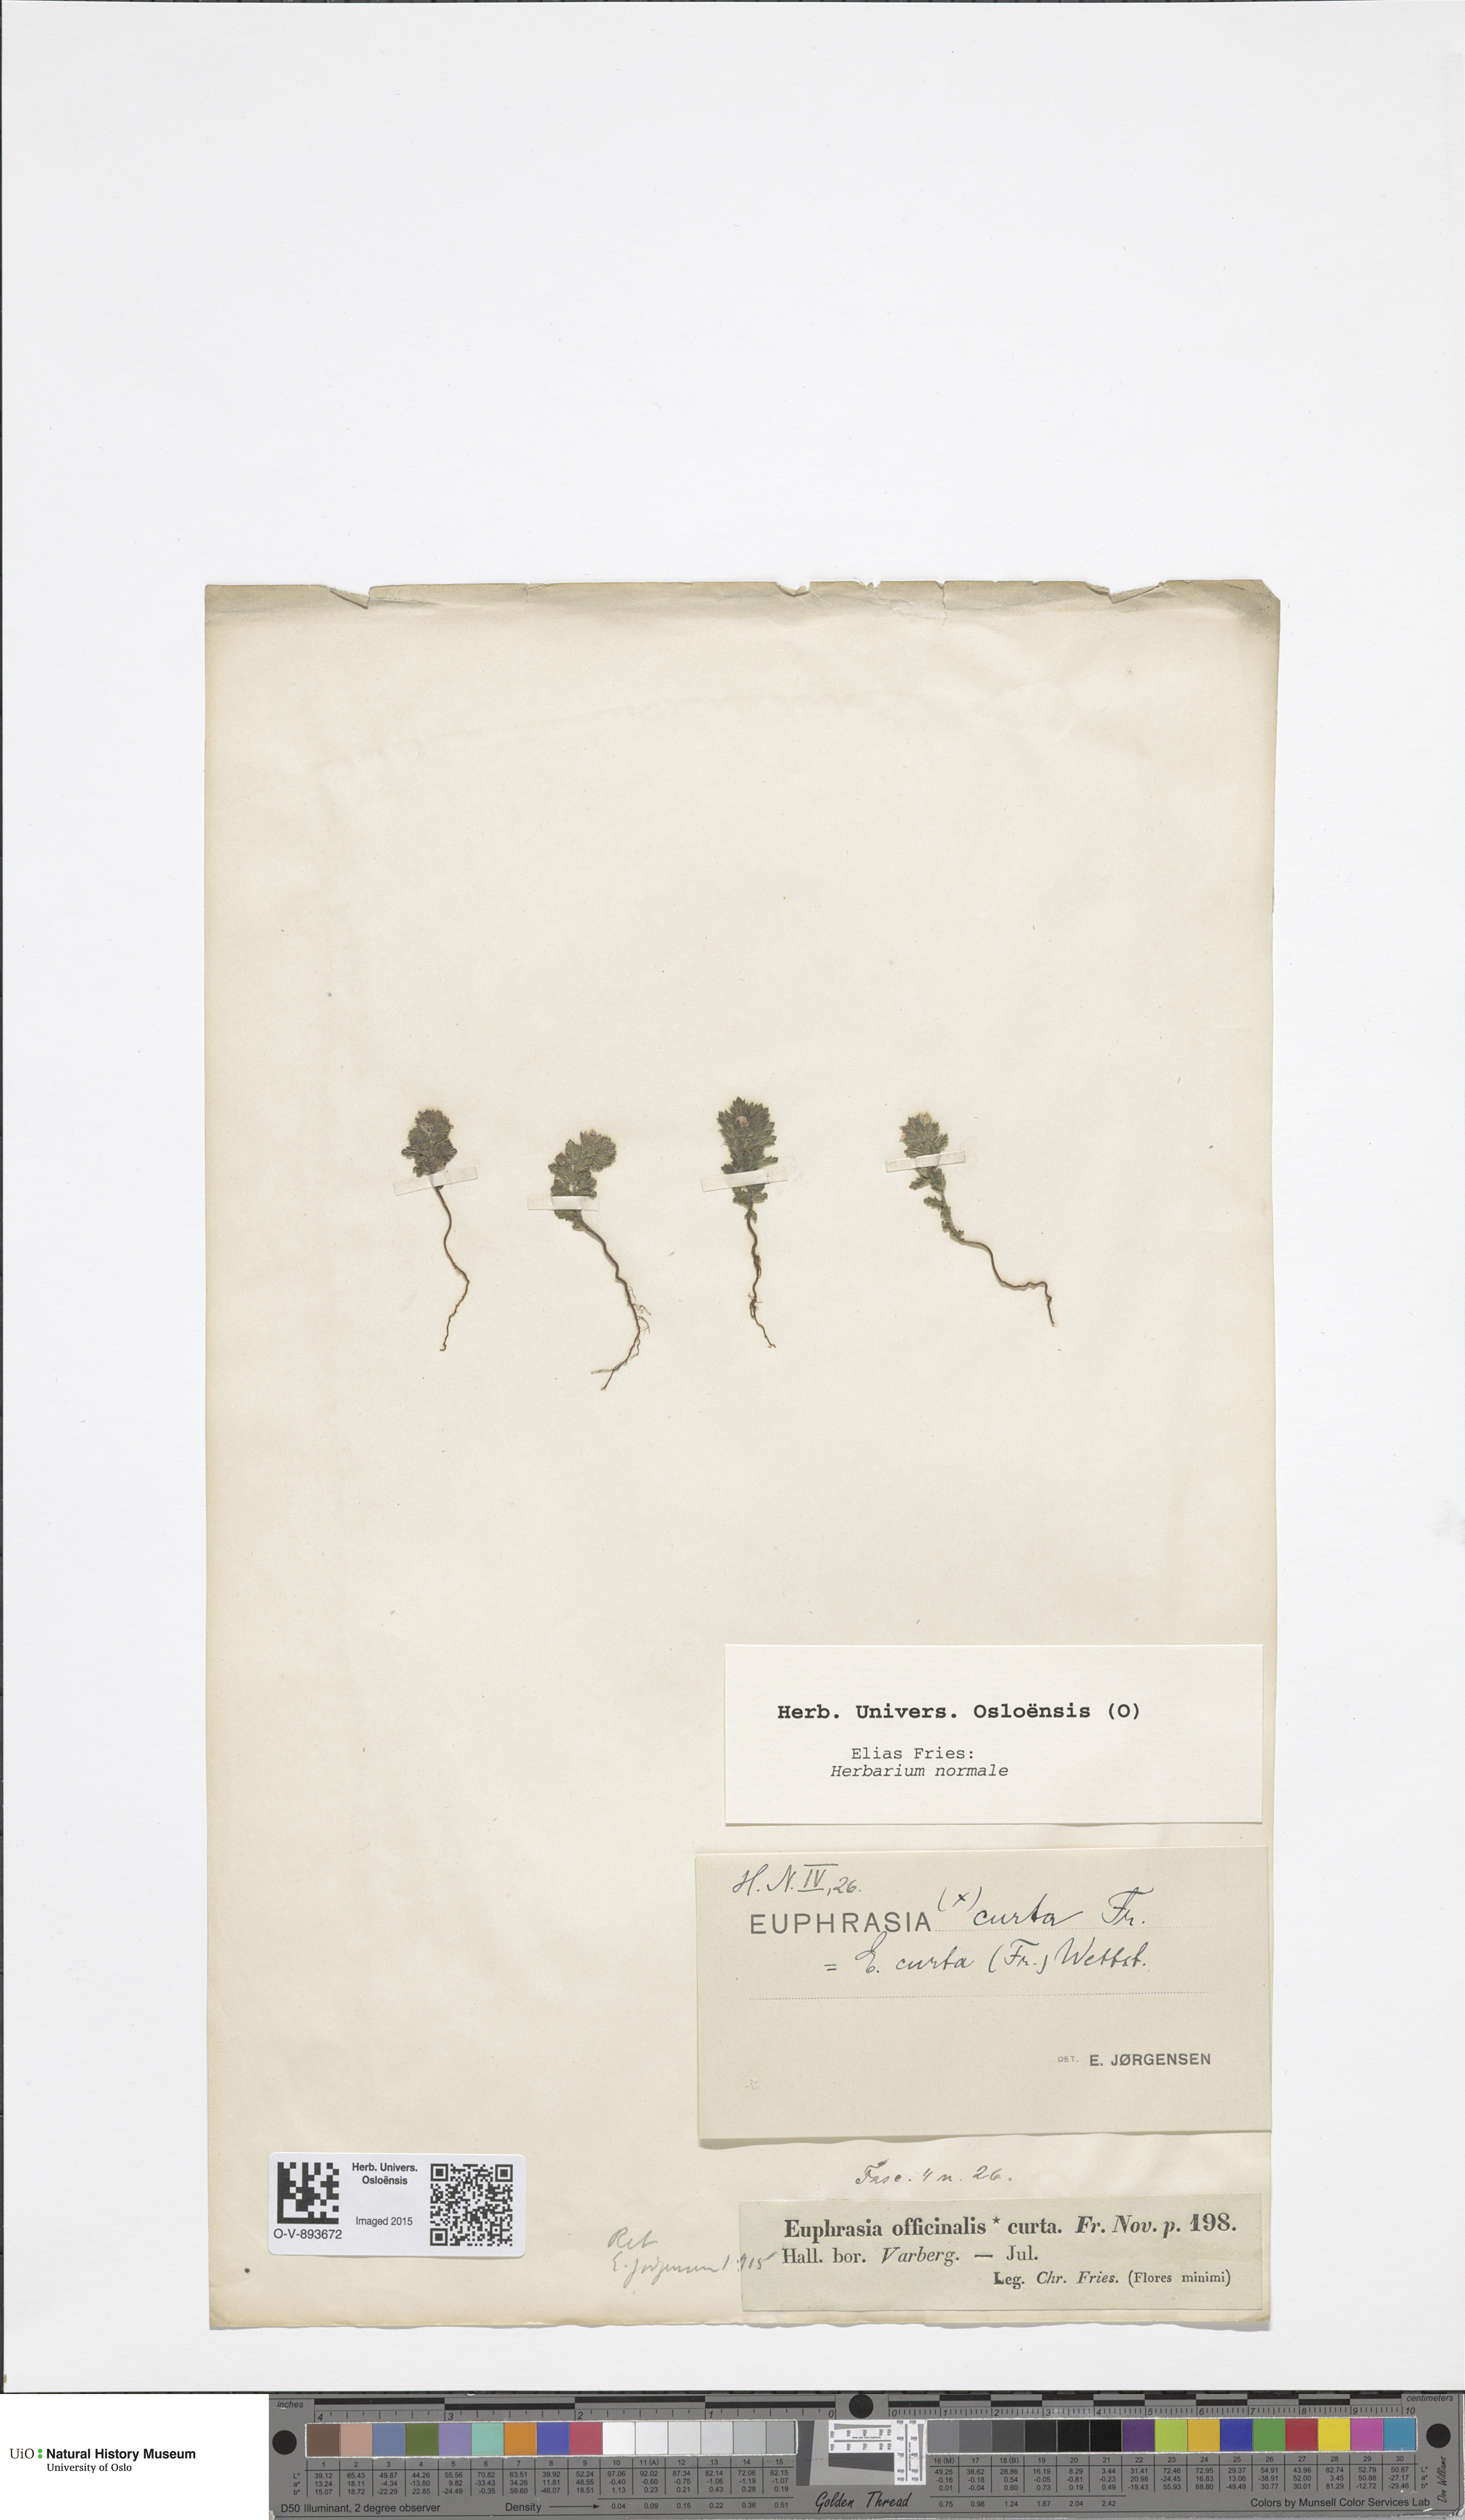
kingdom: Plantae
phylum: Tracheophyta
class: Magnoliopsida
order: Lamiales
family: Orobanchaceae
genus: Euphrasia
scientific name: Euphrasia micrantha
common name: Northern eyebright
